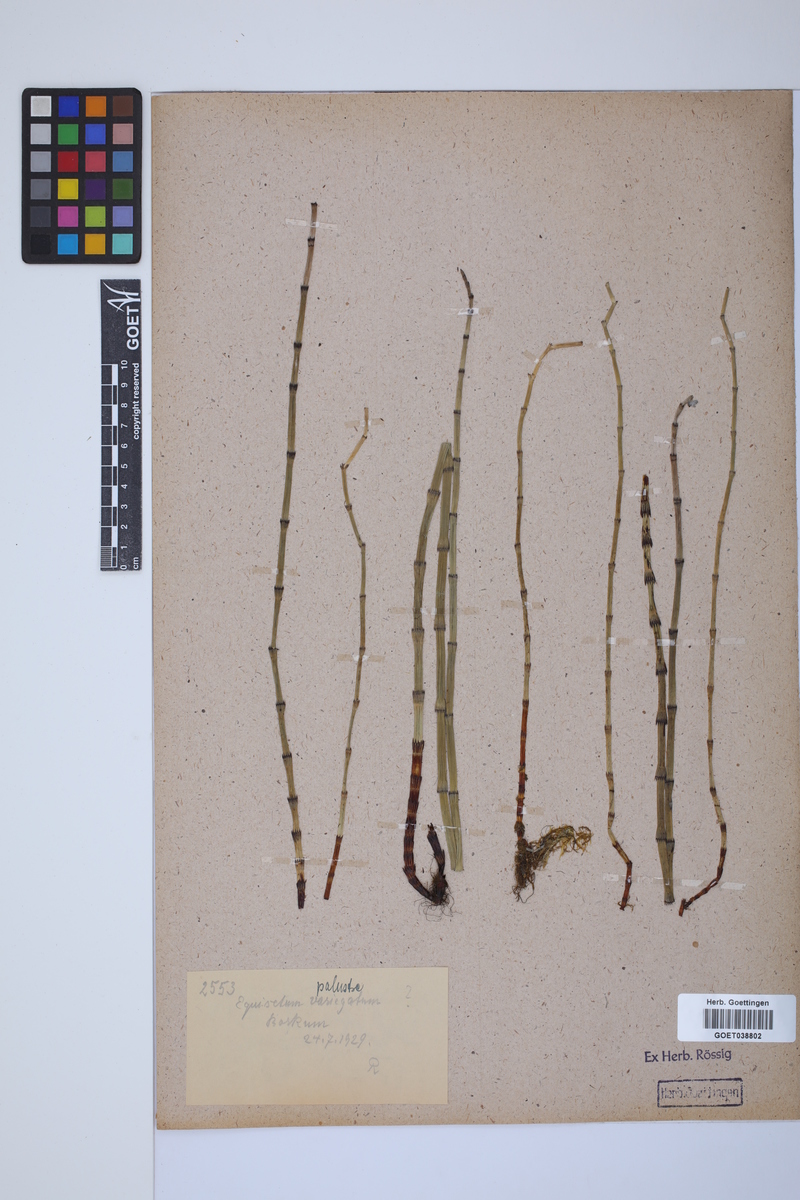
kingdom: Plantae
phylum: Tracheophyta
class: Polypodiopsida
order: Equisetales
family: Equisetaceae
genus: Equisetum
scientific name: Equisetum palustre
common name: Marsh horsetail
